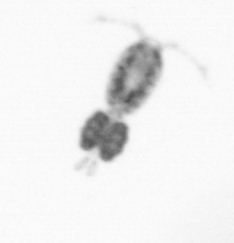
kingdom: Animalia
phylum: Arthropoda
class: Copepoda
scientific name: Copepoda
